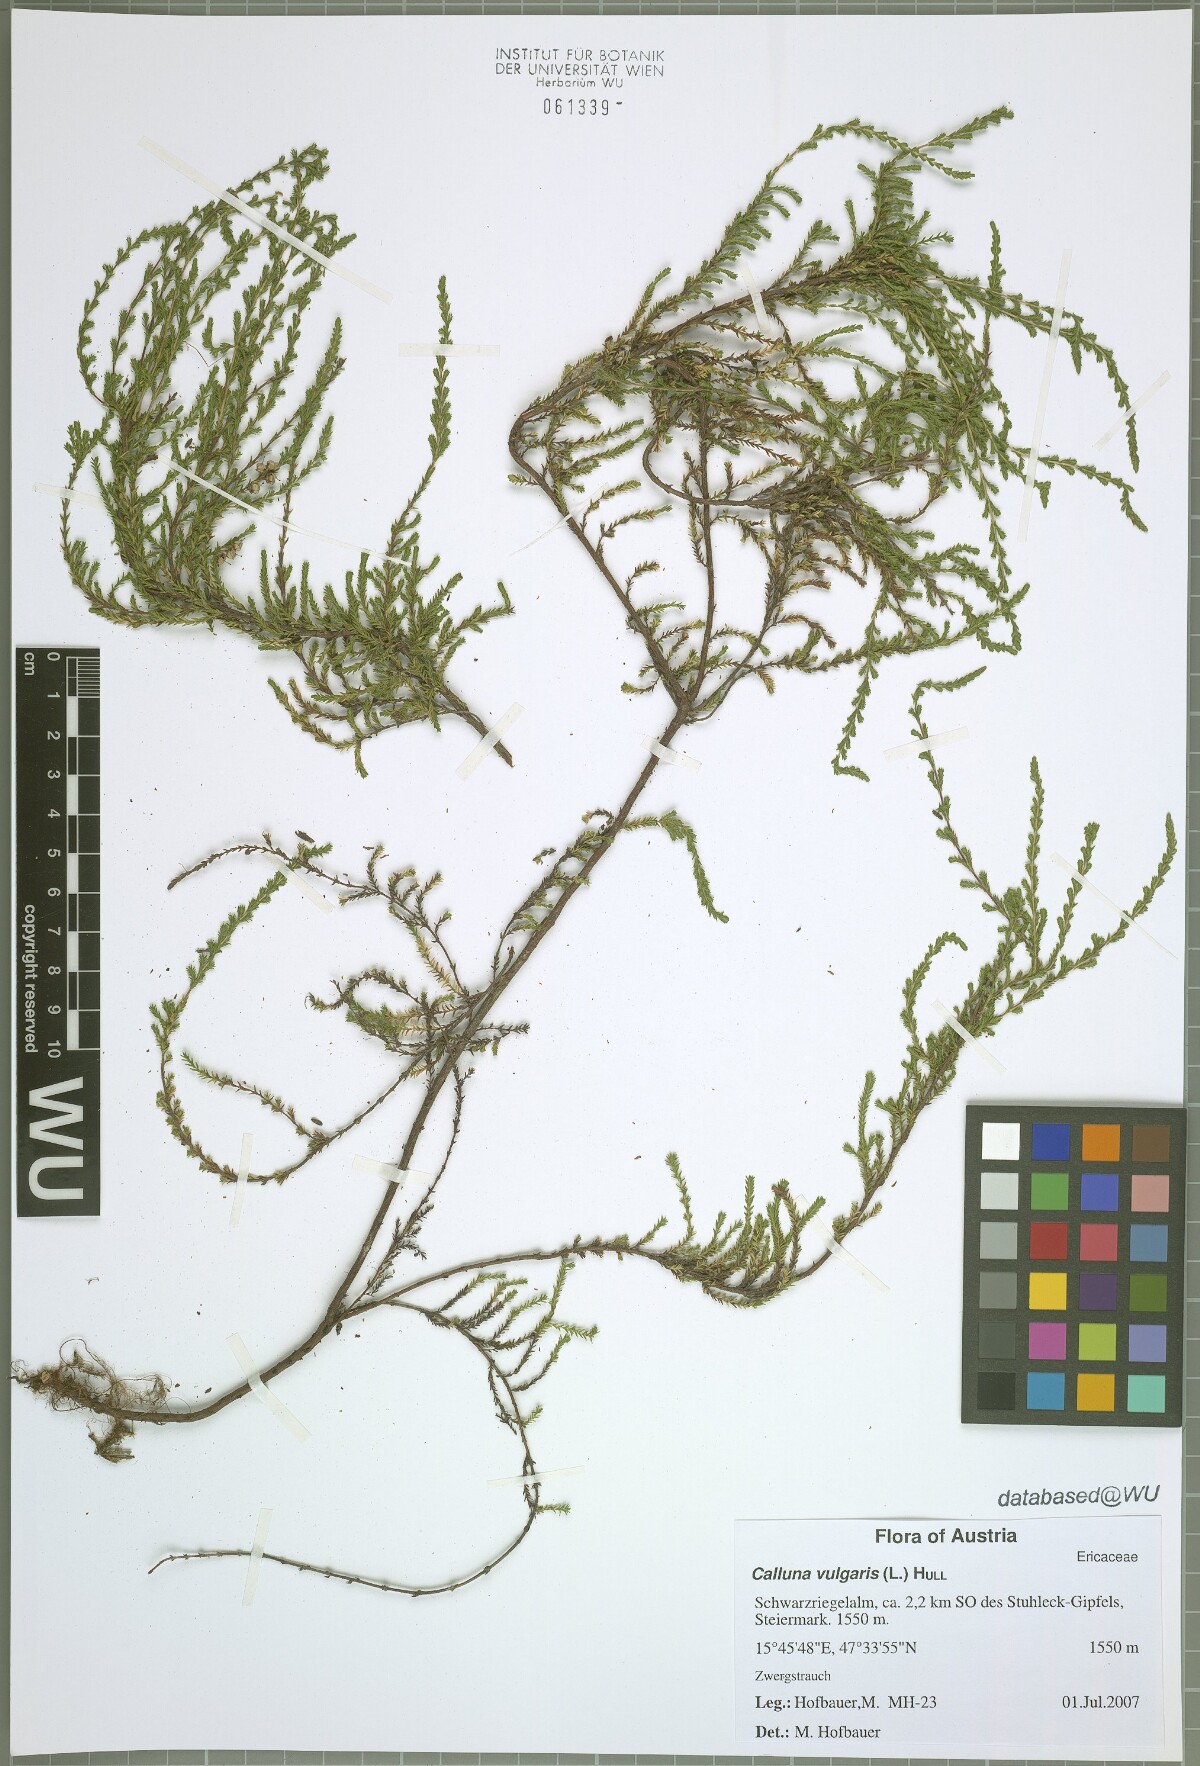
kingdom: Plantae
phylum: Tracheophyta
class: Magnoliopsida
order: Ericales
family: Ericaceae
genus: Calluna
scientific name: Calluna vulgaris
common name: Heather
